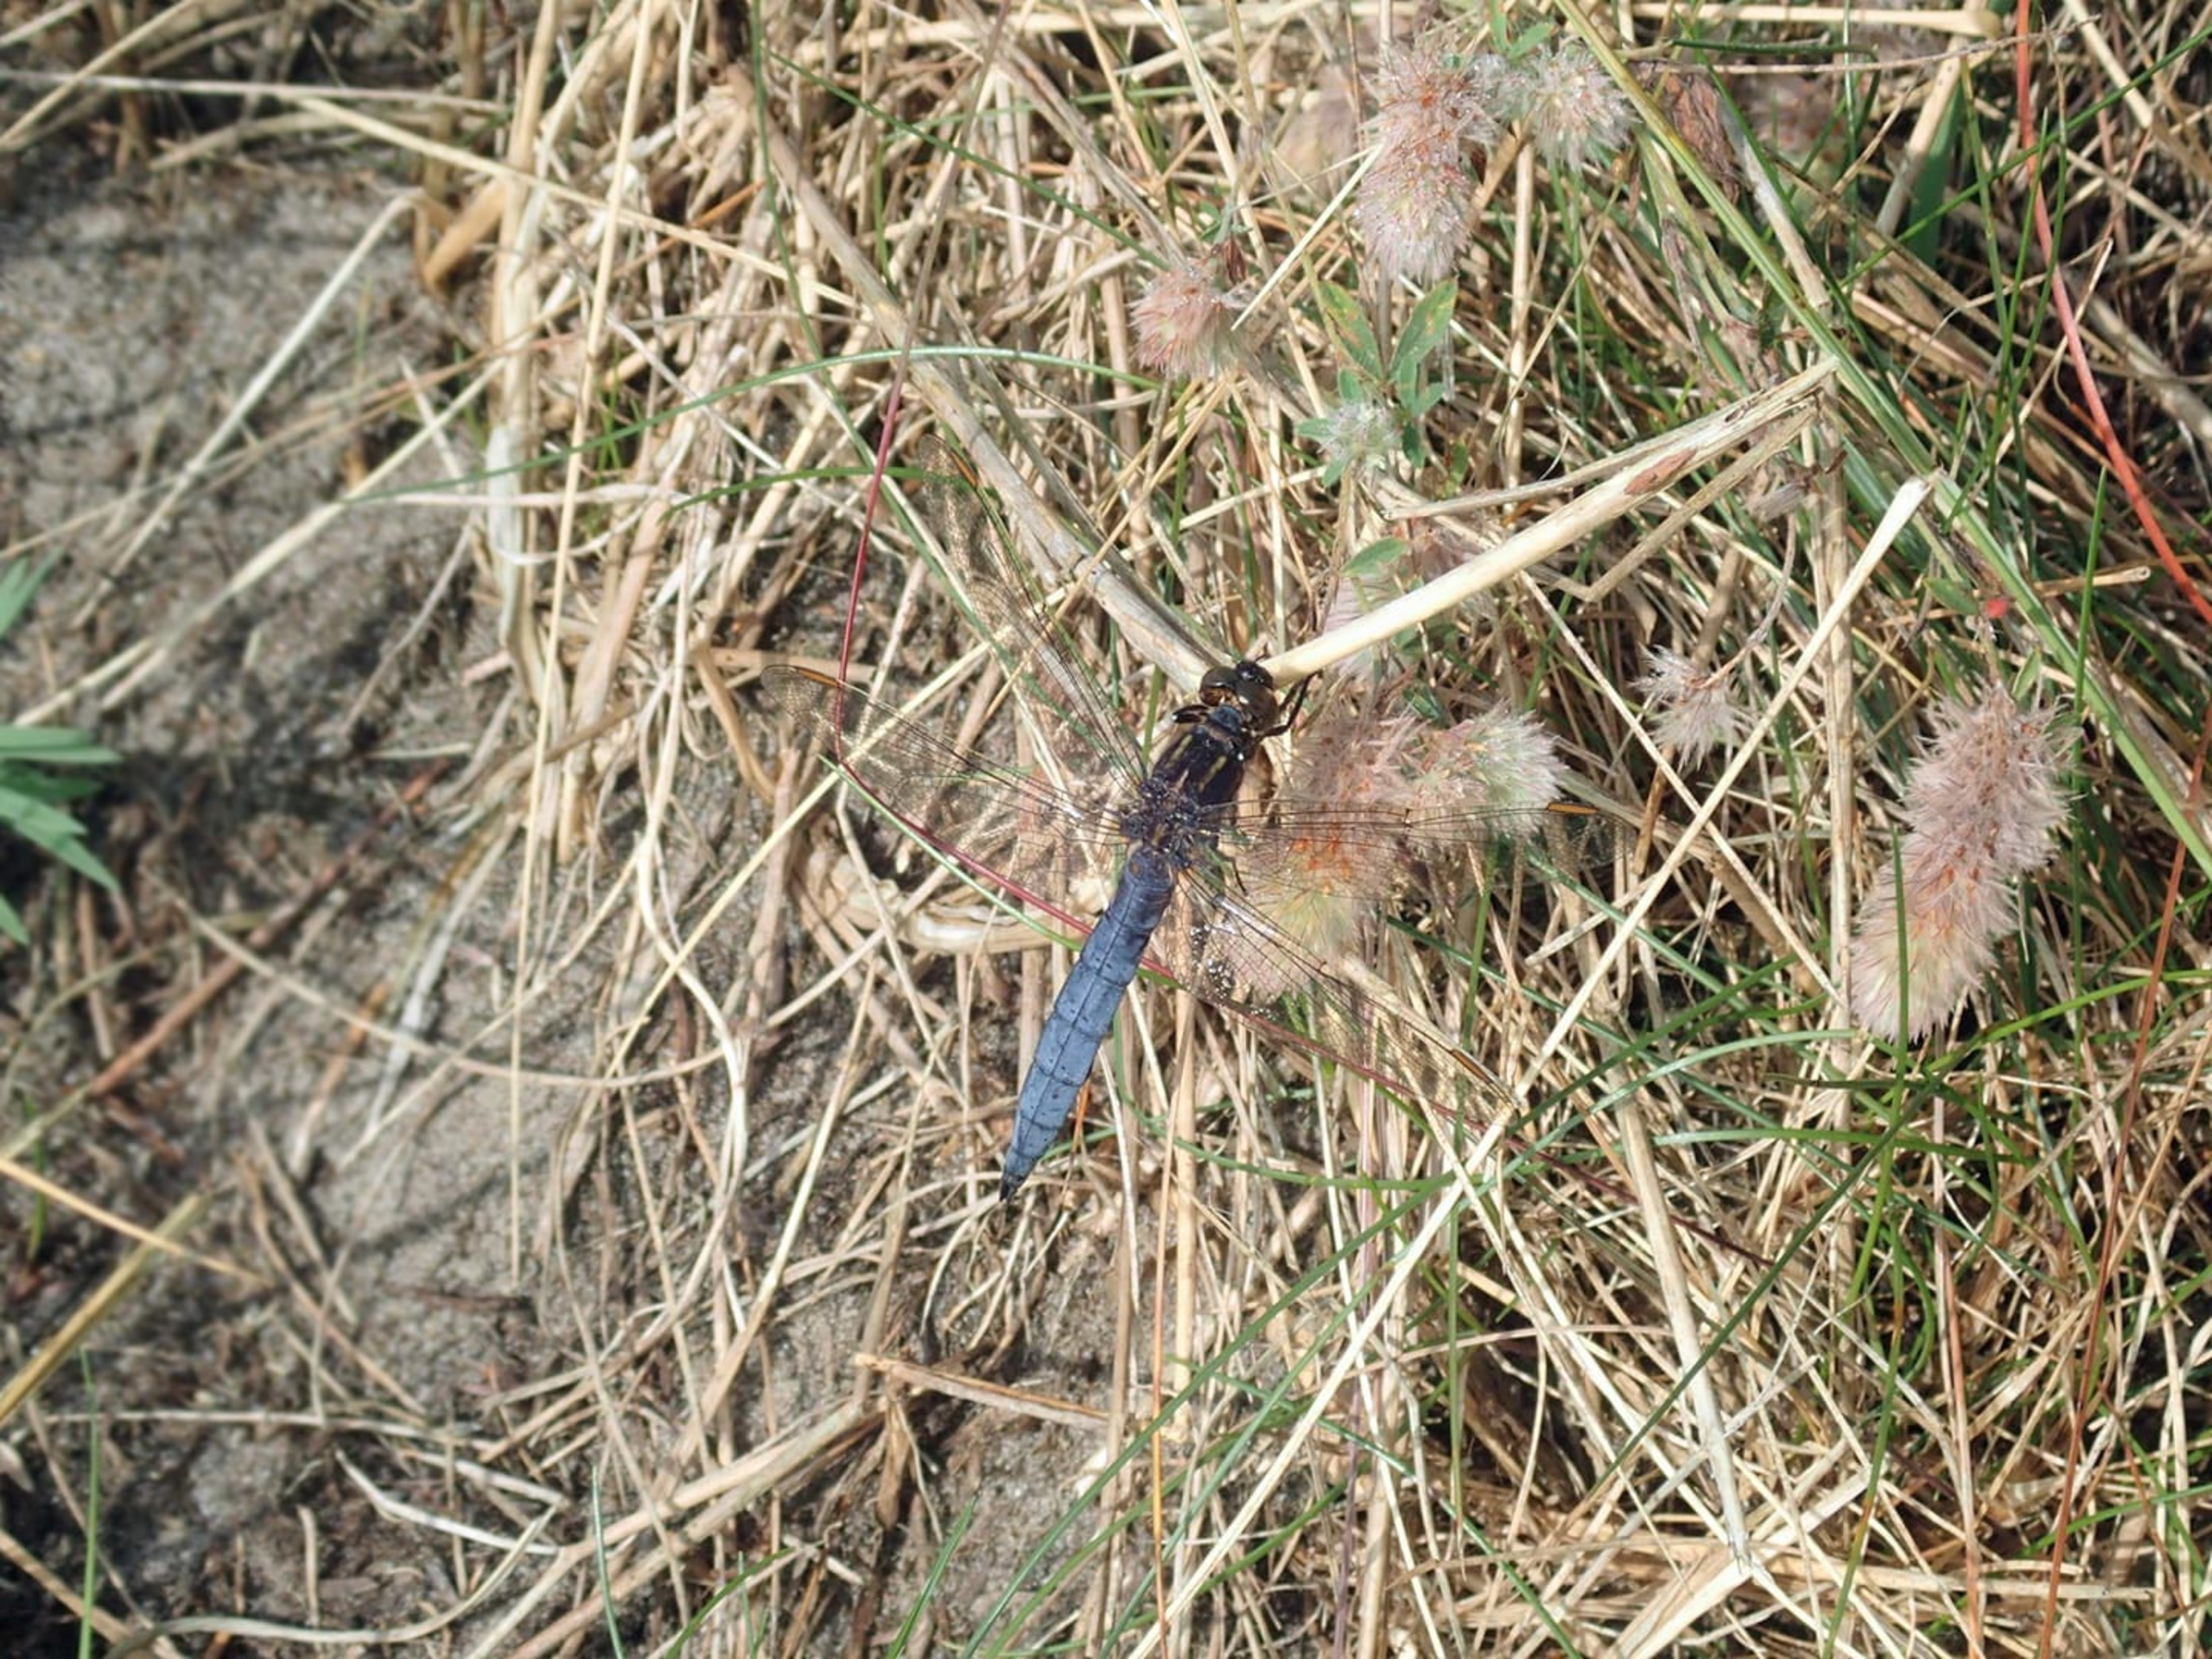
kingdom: Animalia
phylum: Arthropoda
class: Insecta
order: Odonata
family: Libellulidae
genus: Orthetrum
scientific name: Orthetrum coerulescens
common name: Lille blåpil
